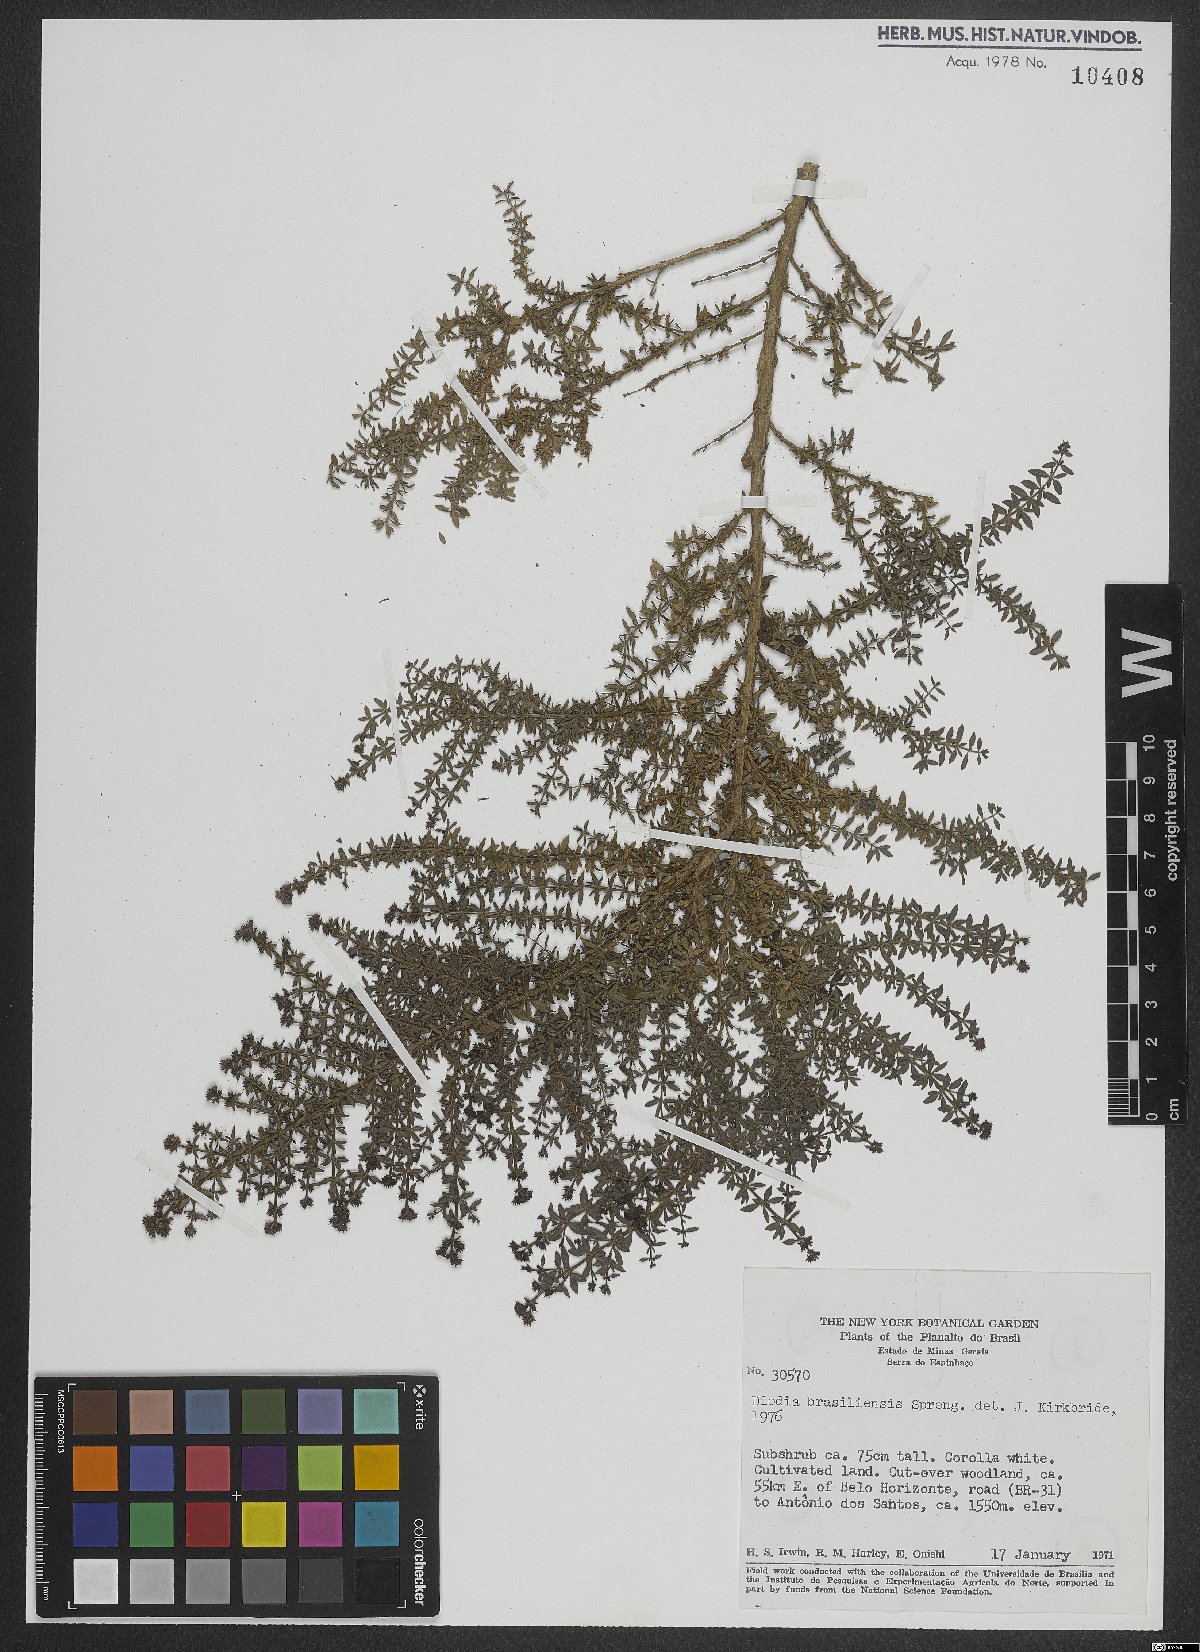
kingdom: Plantae
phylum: Tracheophyta
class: Magnoliopsida
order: Gentianales
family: Rubiaceae
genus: Galianthe
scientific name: Galianthe brasiliensis
